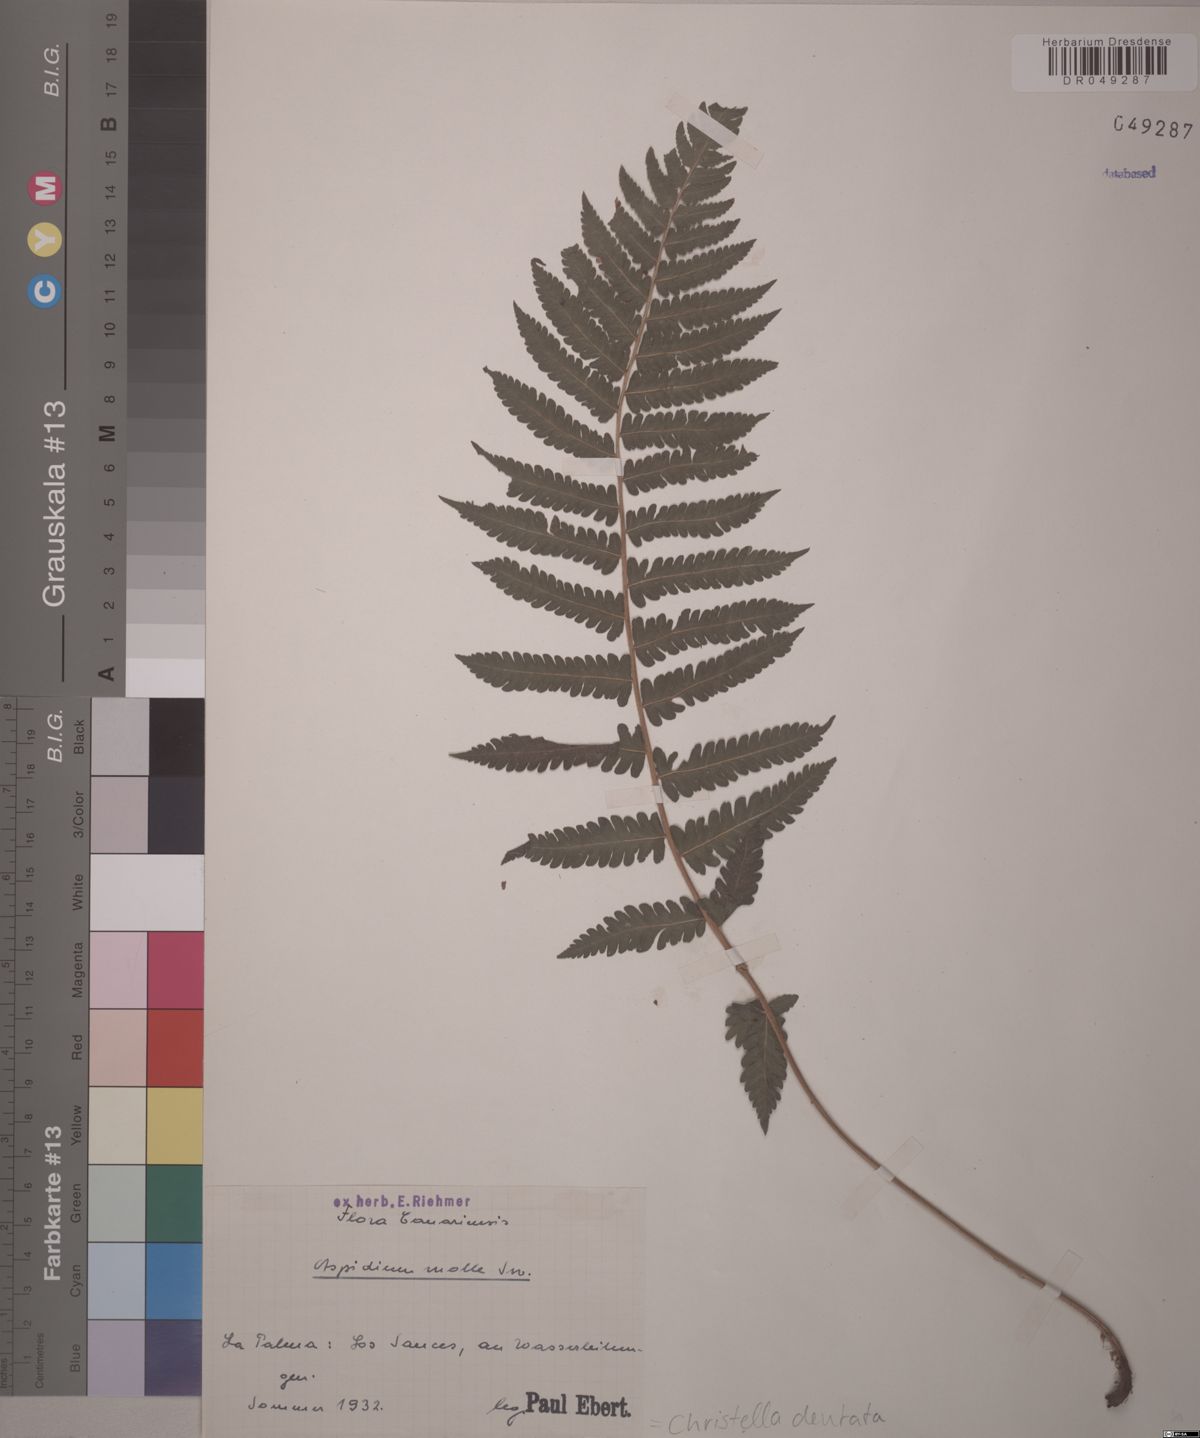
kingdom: Plantae
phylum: Tracheophyta
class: Polypodiopsida
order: Polypodiales
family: Thelypteridaceae
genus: Christella
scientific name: Christella dentata
